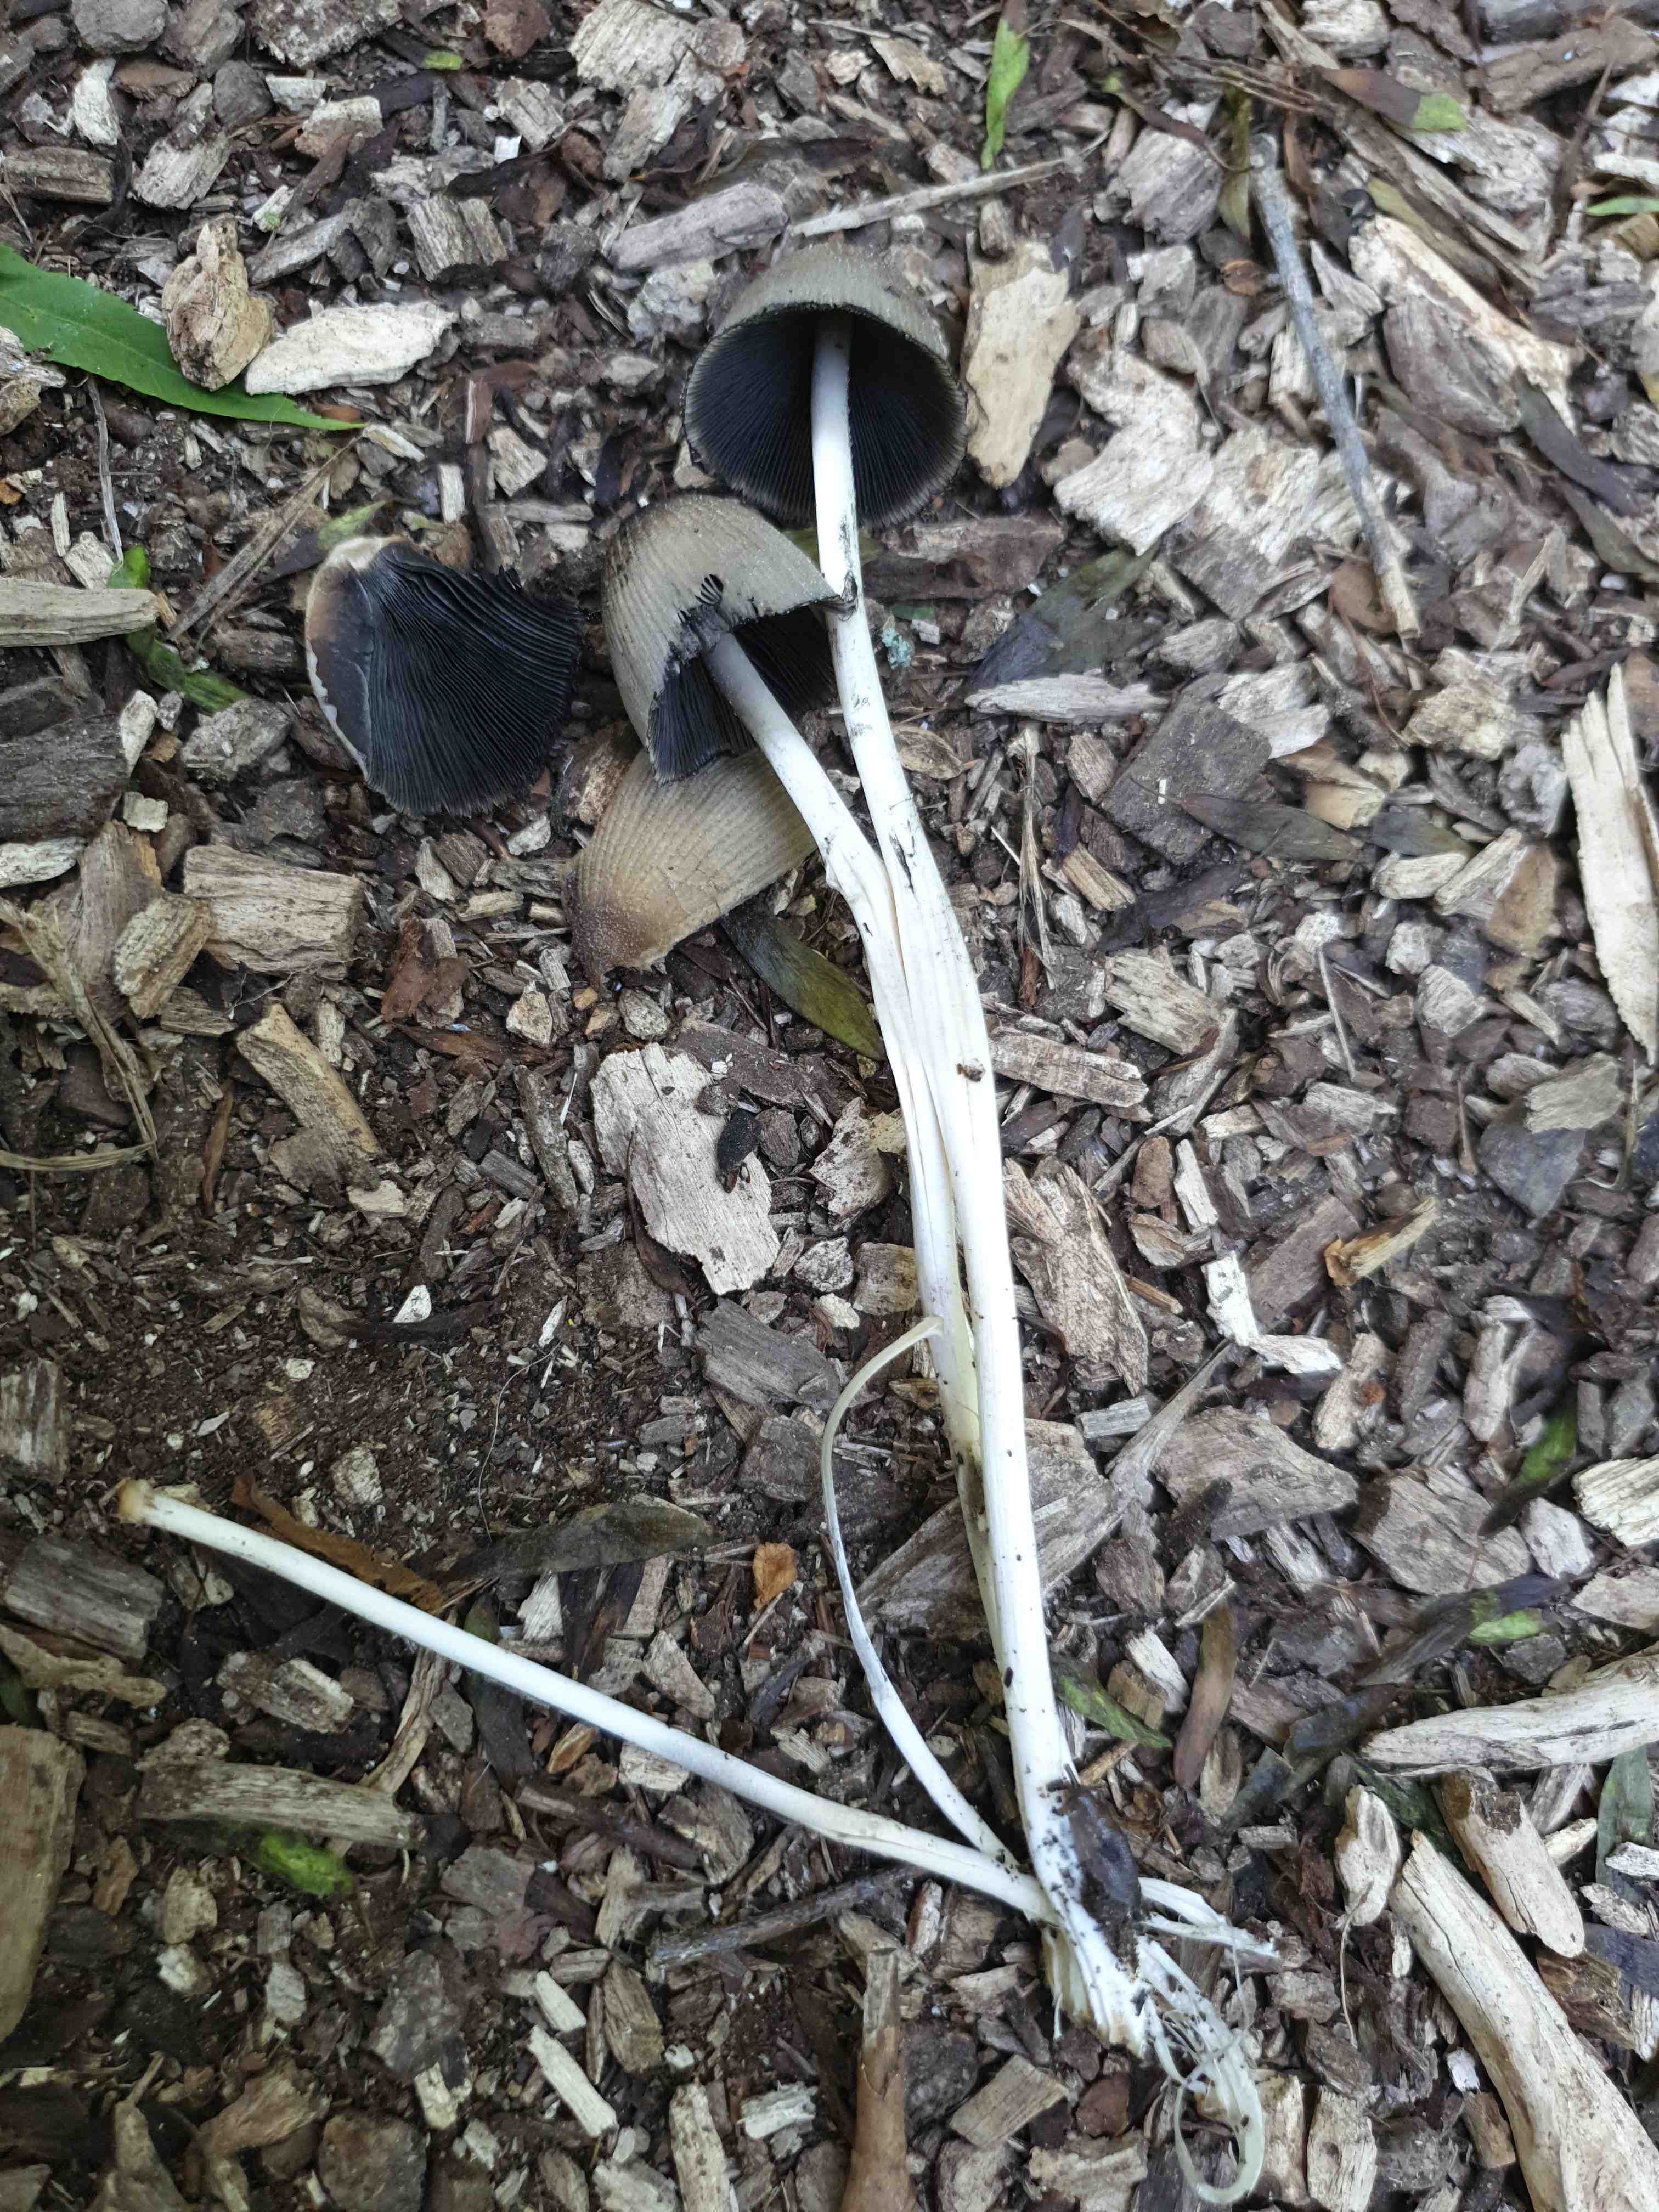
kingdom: Fungi
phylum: Basidiomycota
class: Agaricomycetes
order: Agaricales
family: Psathyrellaceae
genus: Coprinellus
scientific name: Coprinellus
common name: blækhat
